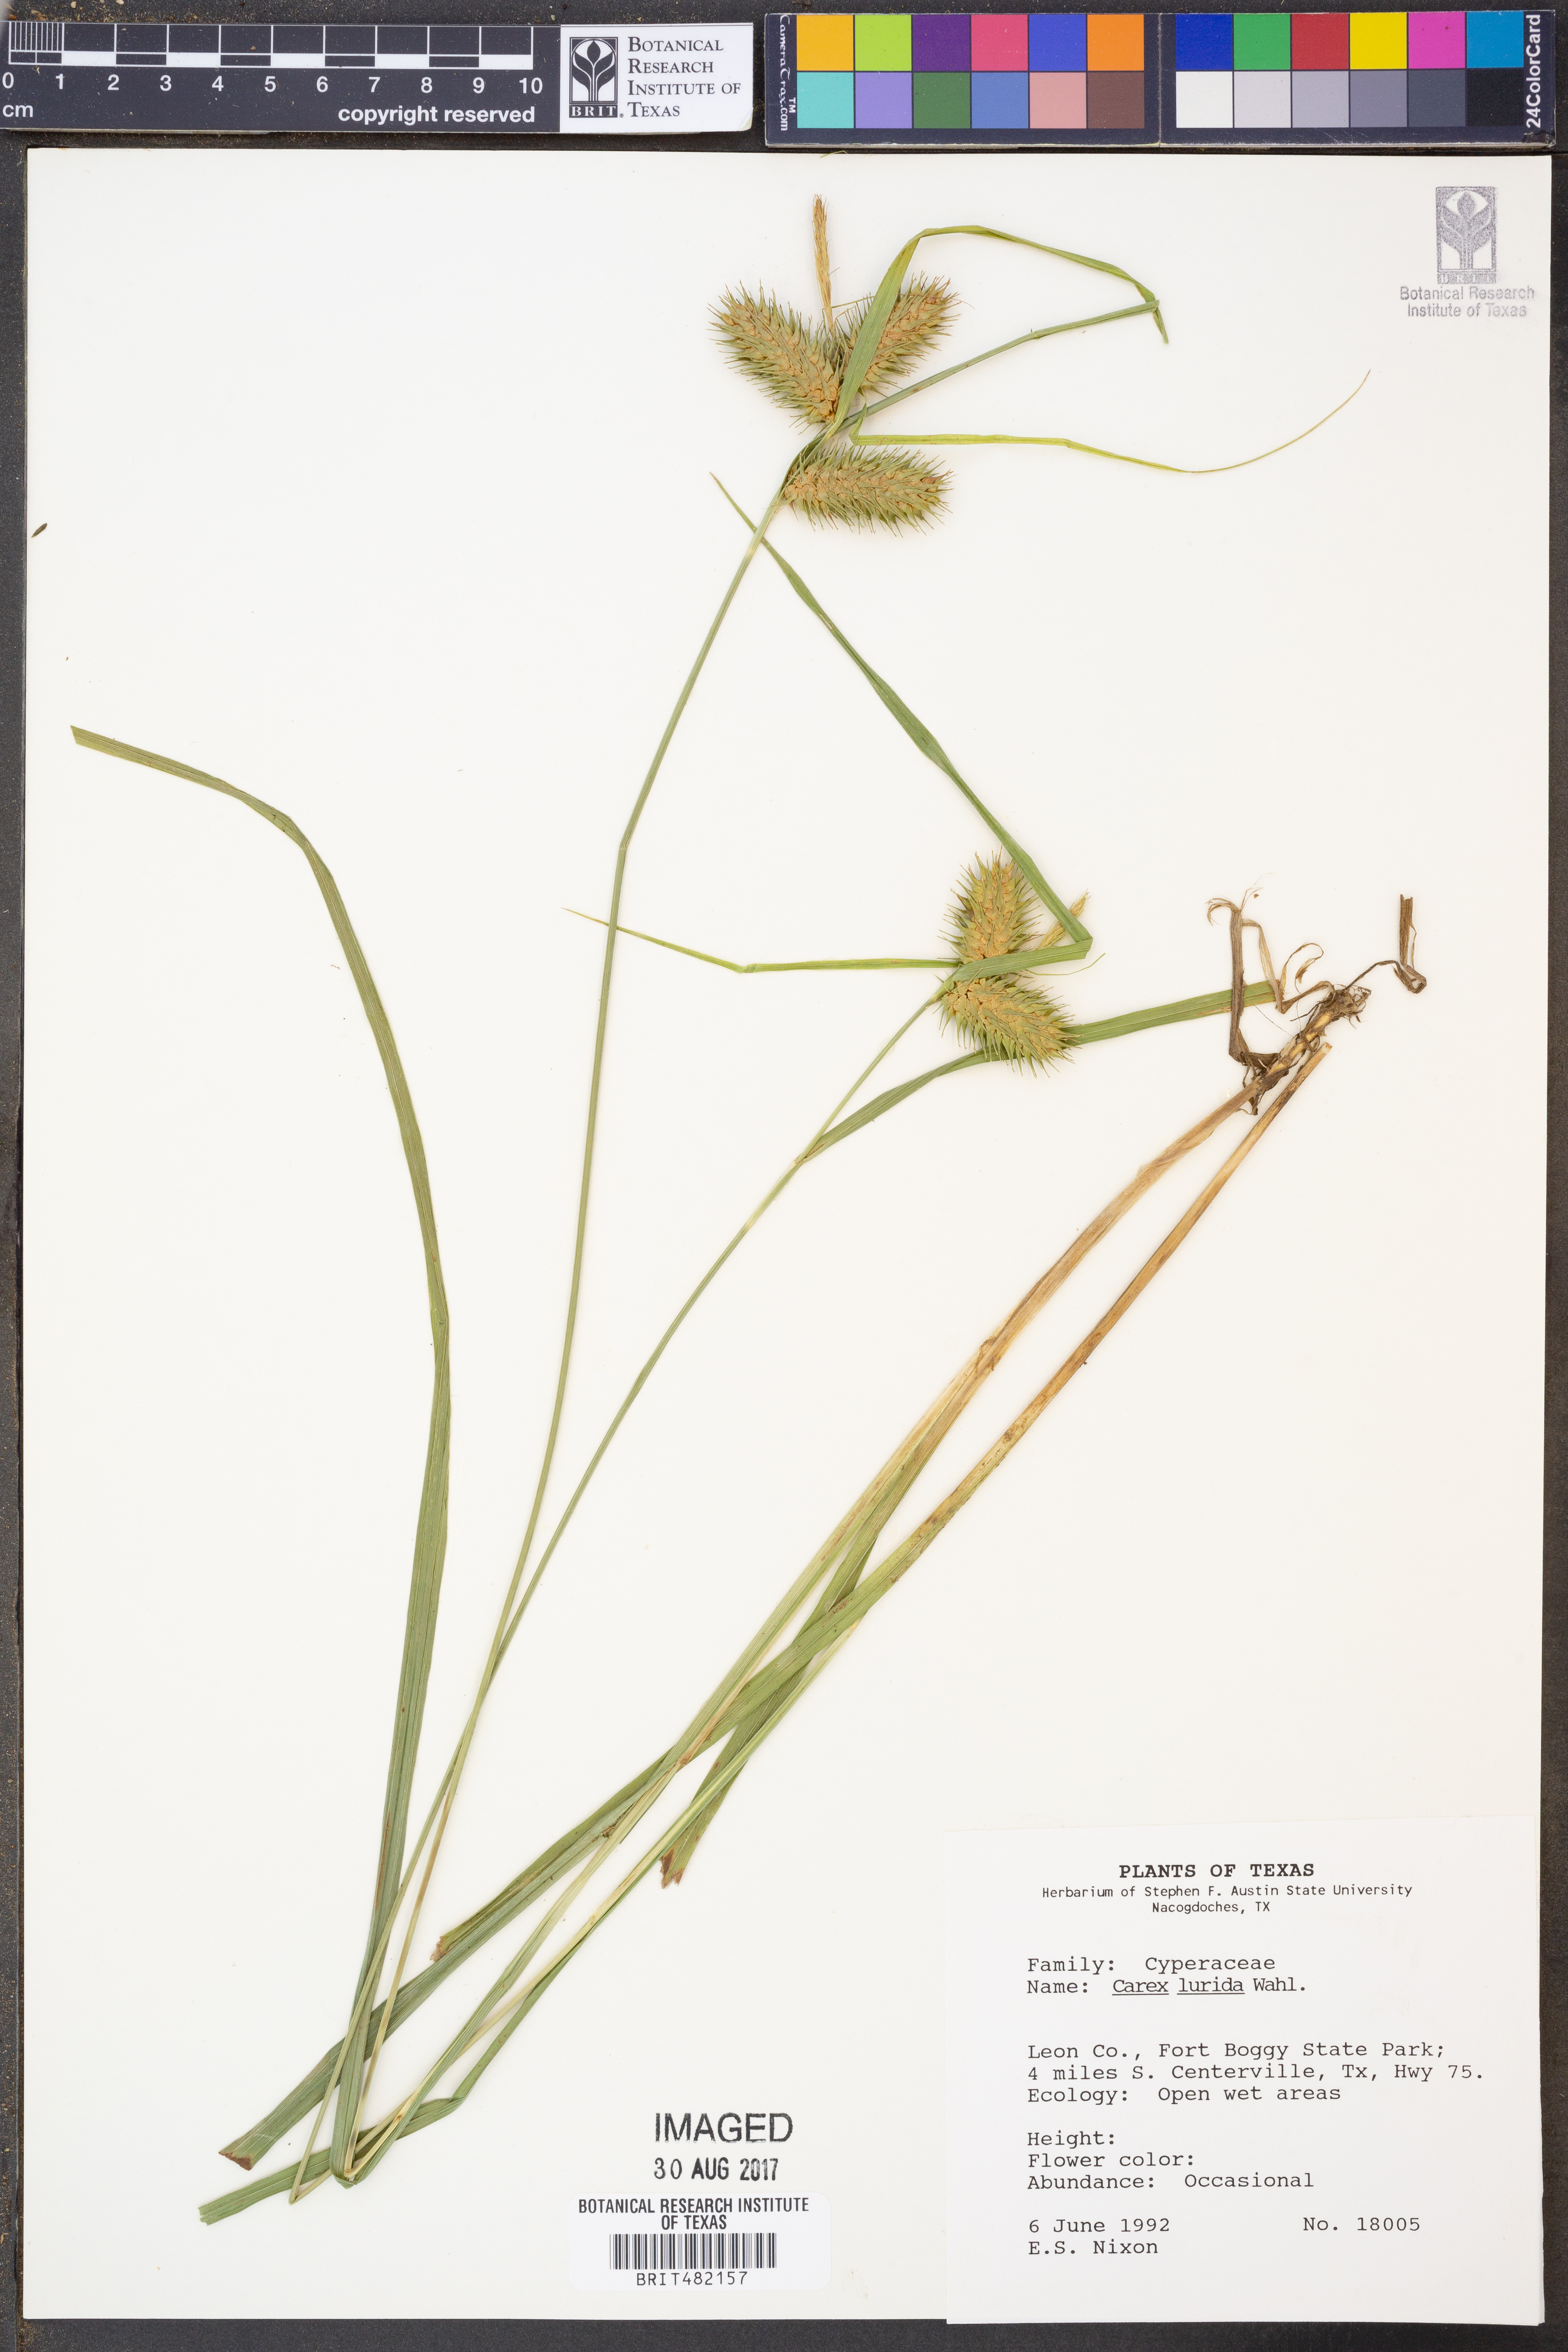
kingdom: Plantae
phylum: Tracheophyta
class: Liliopsida
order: Poales
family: Cyperaceae
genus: Carex
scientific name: Carex lurida
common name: Sallow sedge
